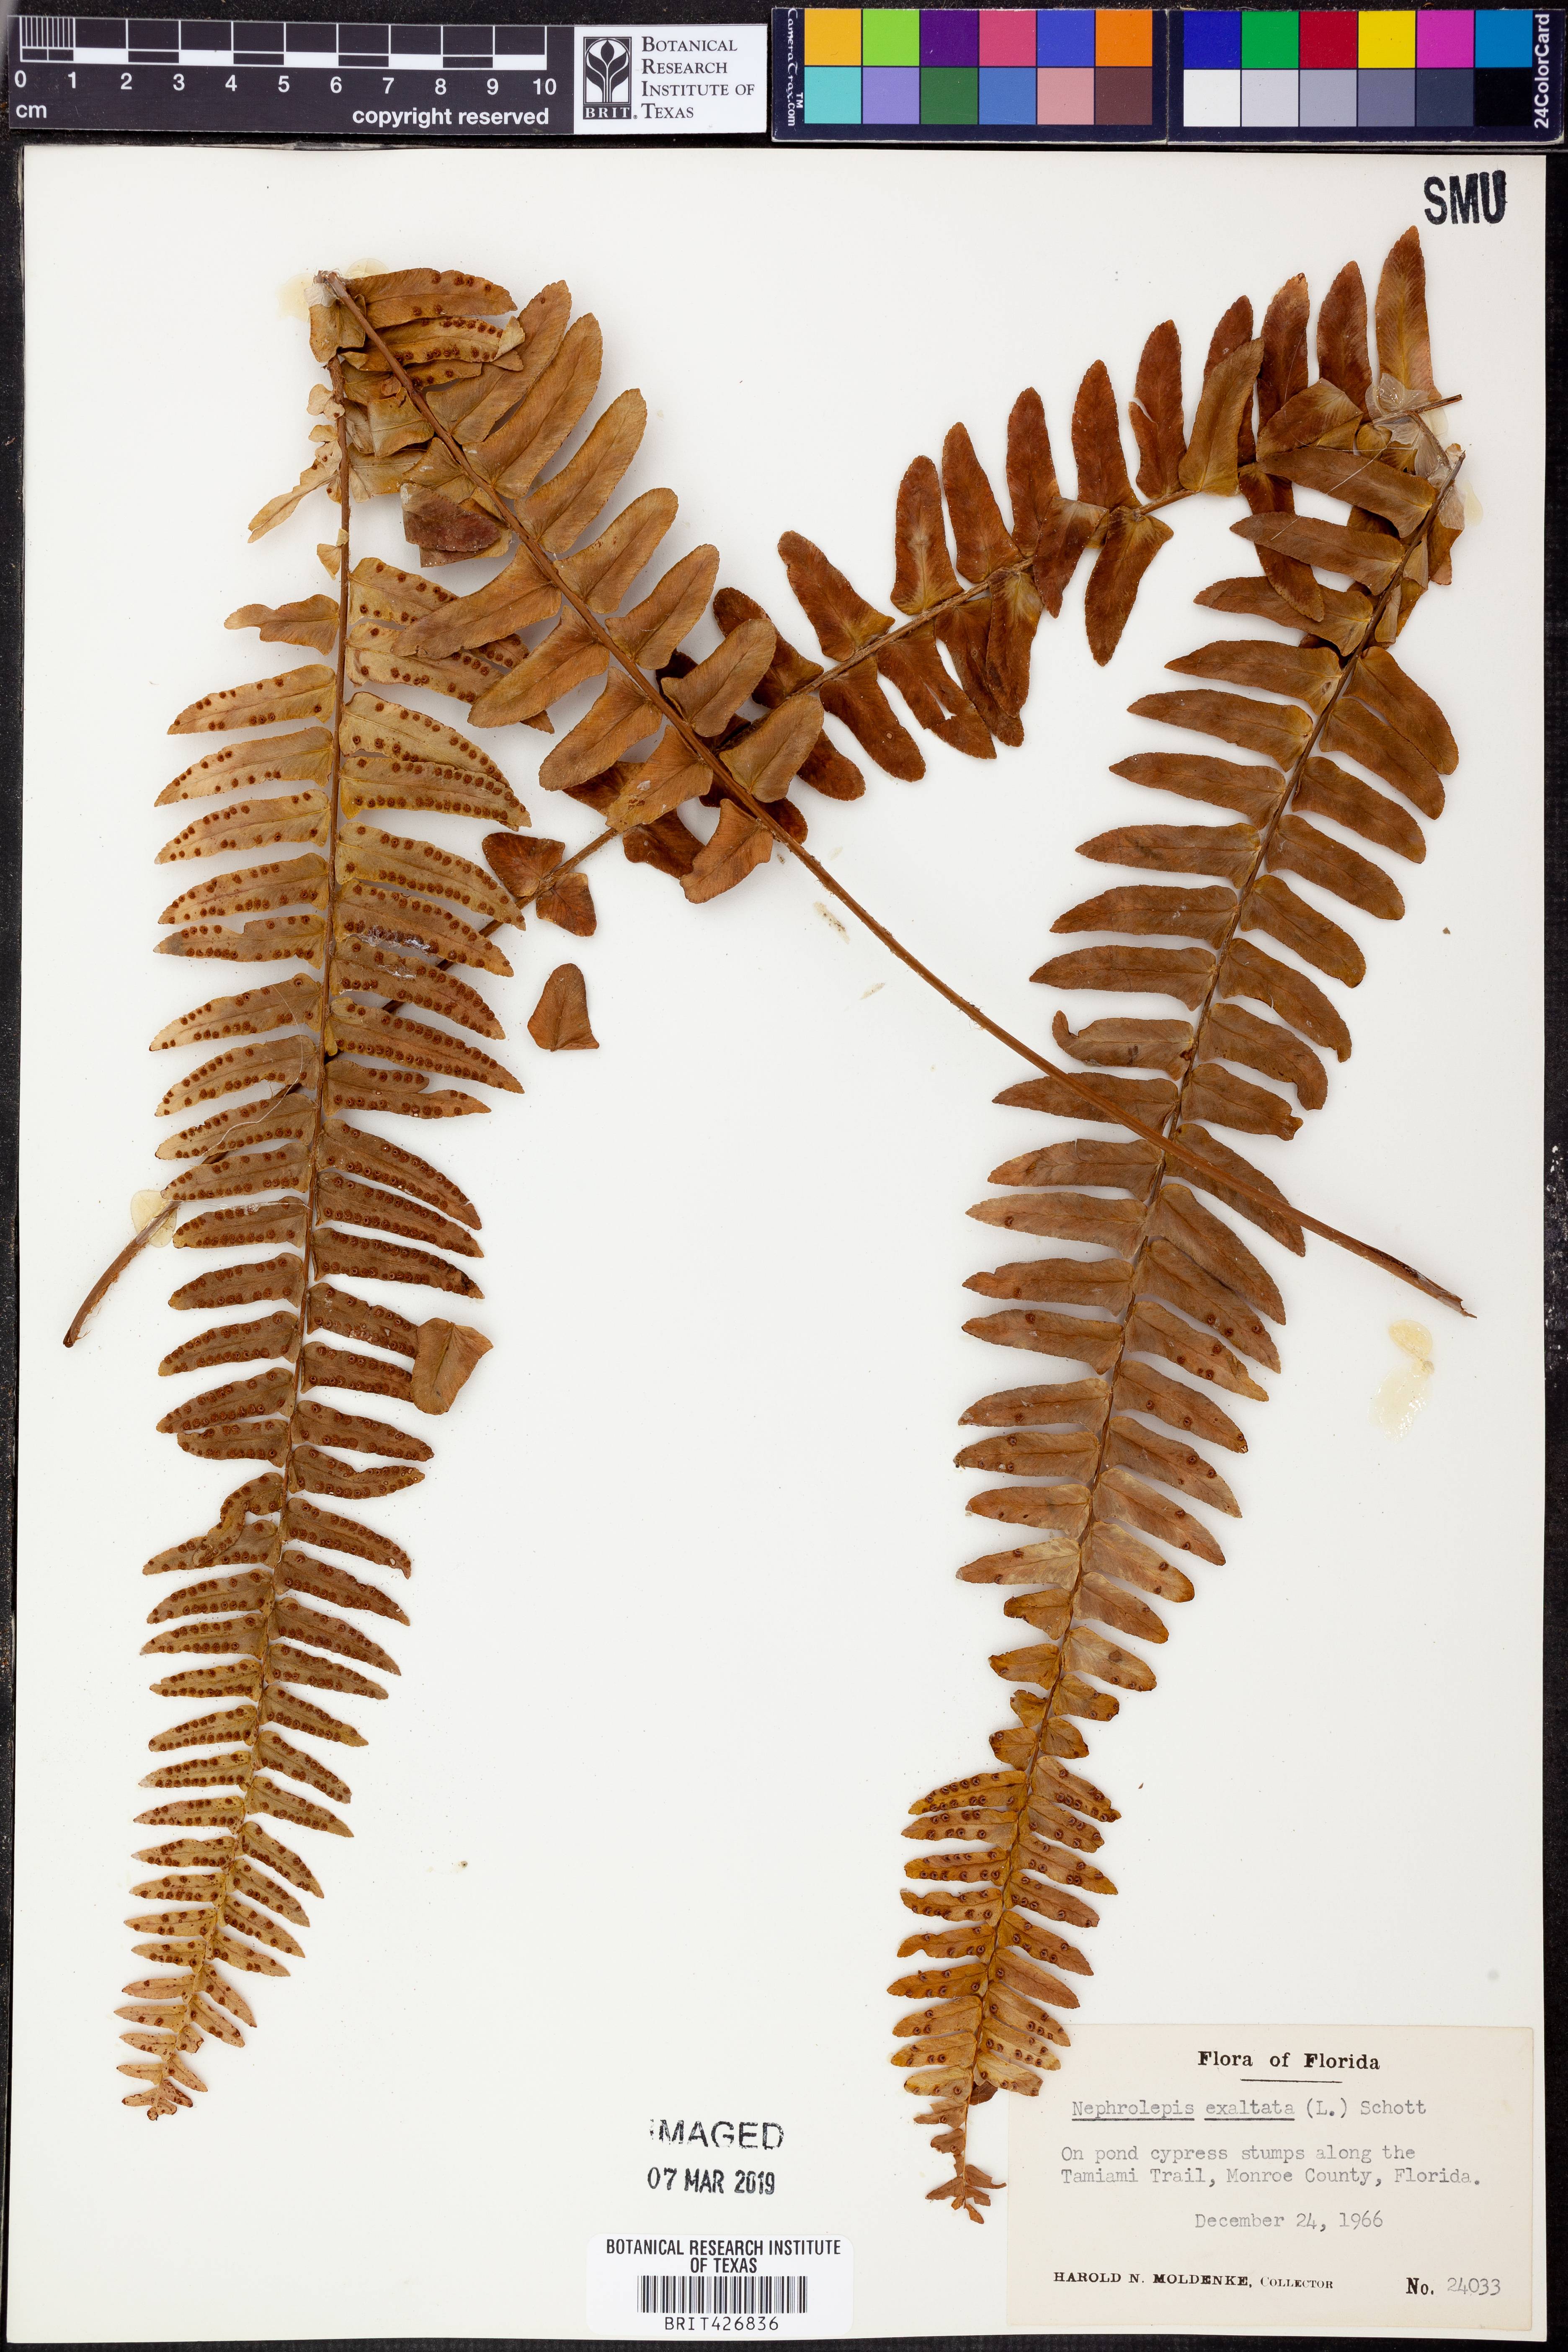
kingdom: Plantae
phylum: Tracheophyta
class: Polypodiopsida
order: Polypodiales
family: Nephrolepidaceae
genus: Nephrolepis
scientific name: Nephrolepis exaltata
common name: Sword fern
